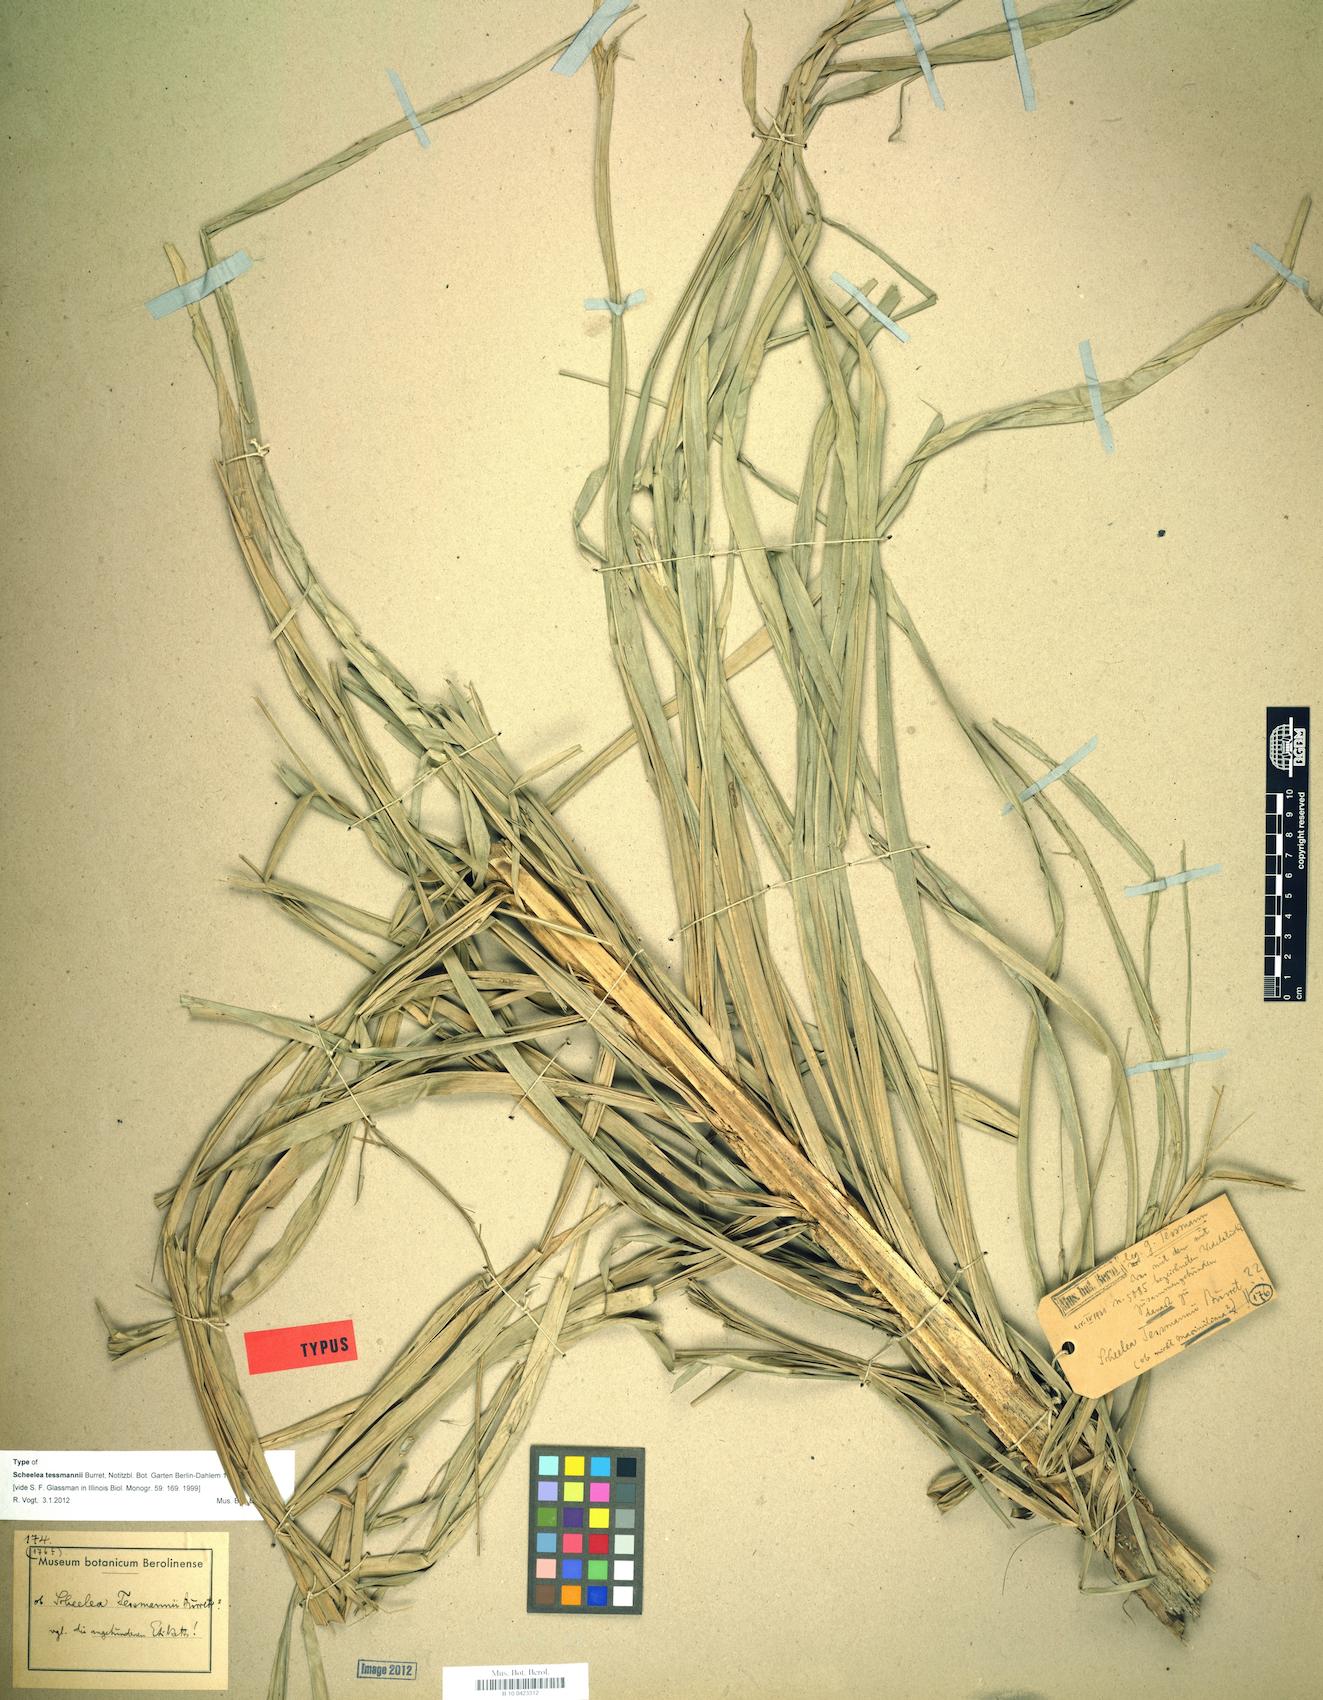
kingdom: Plantae
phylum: Tracheophyta
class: Liliopsida
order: Arecales
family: Arecaceae
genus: Attalea
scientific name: Attalea peruviana
